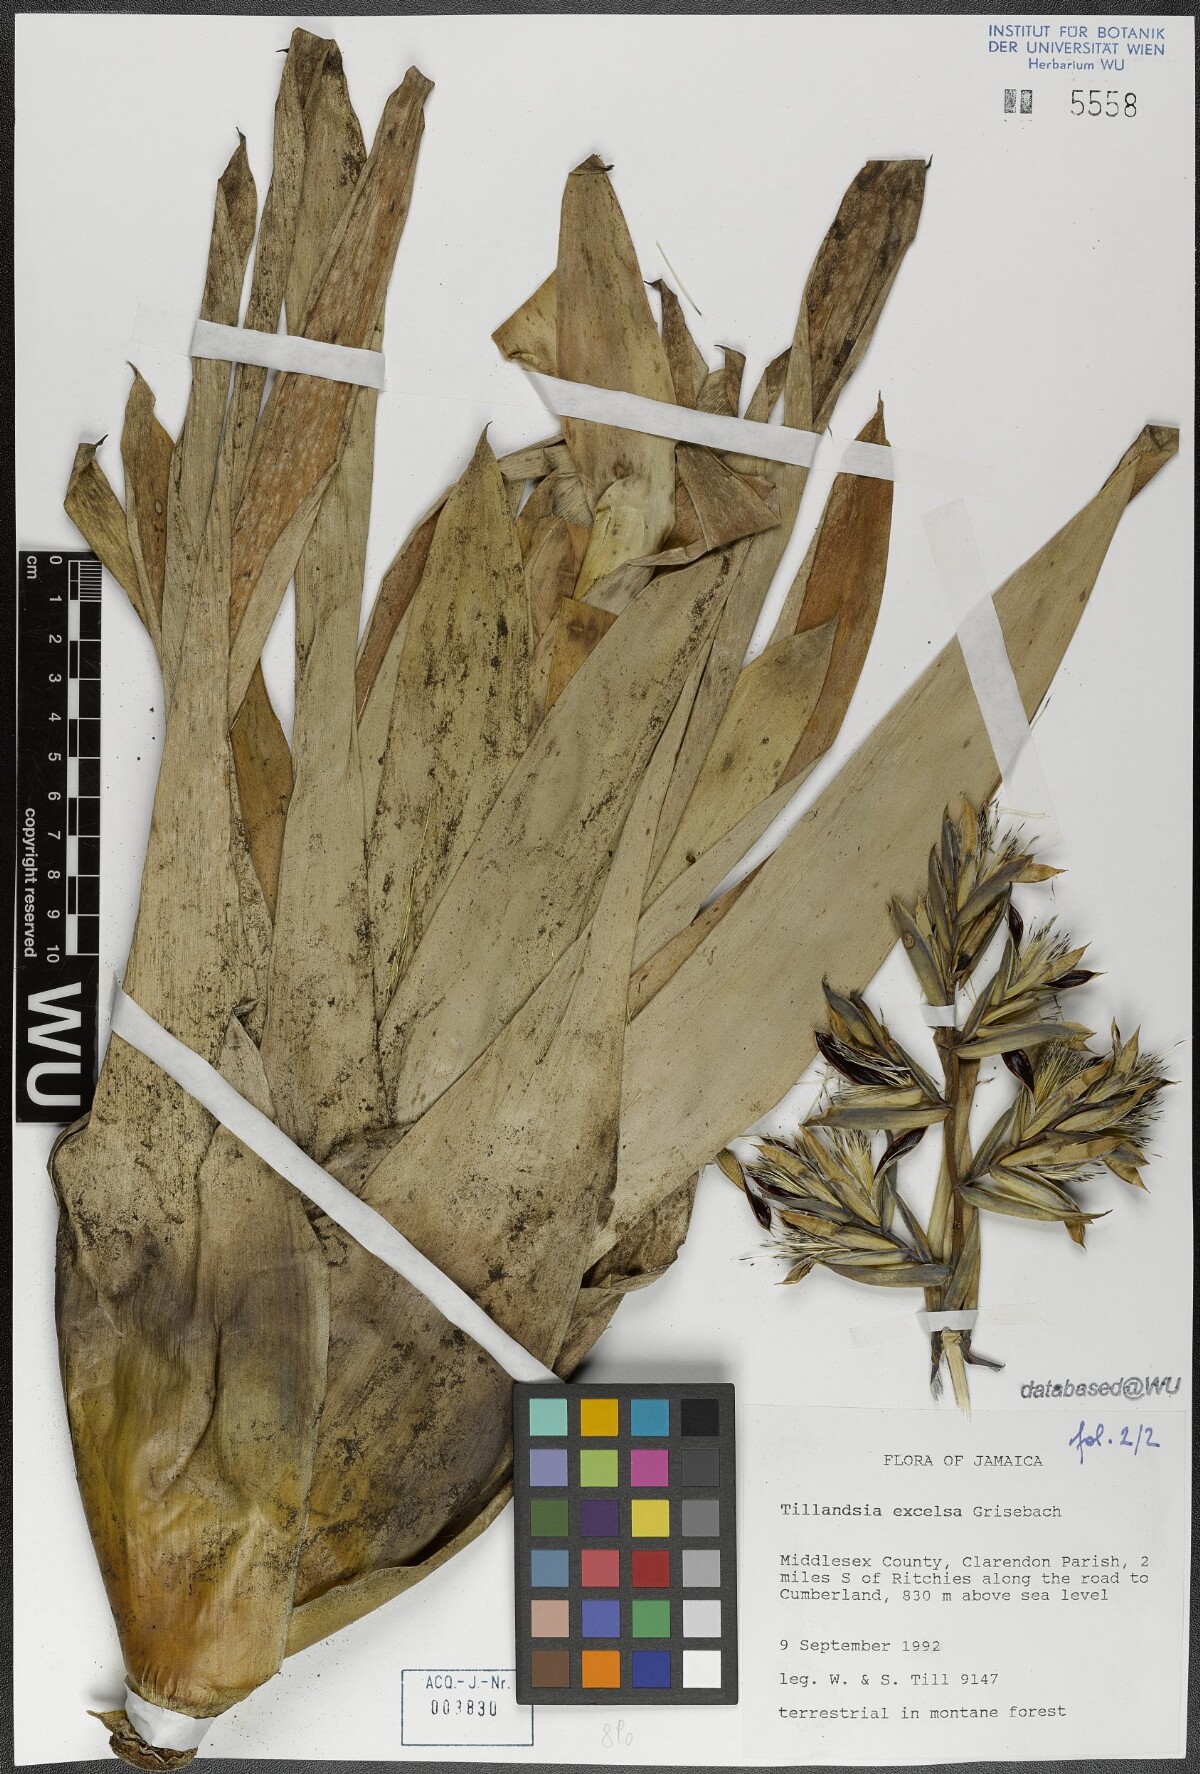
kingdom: Plantae
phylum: Tracheophyta
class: Liliopsida
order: Poales
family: Bromeliaceae
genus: Tillandsia
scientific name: Tillandsia excelsa
